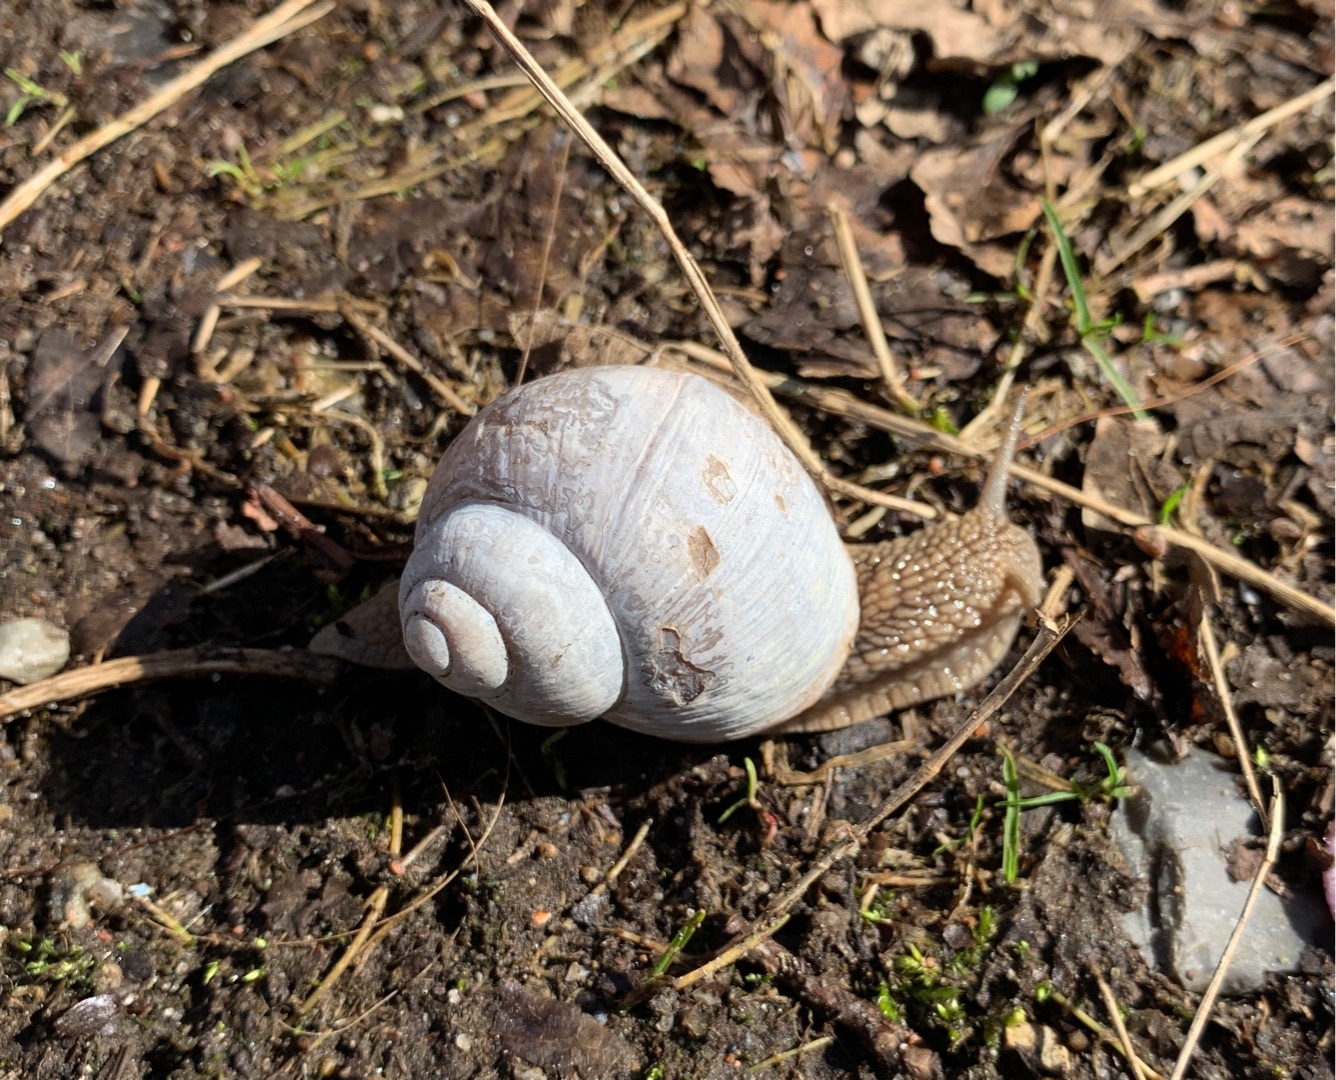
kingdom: Animalia
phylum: Mollusca
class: Gastropoda
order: Stylommatophora
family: Helicidae
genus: Helix
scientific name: Helix pomatia
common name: Vinbjergsnegl
